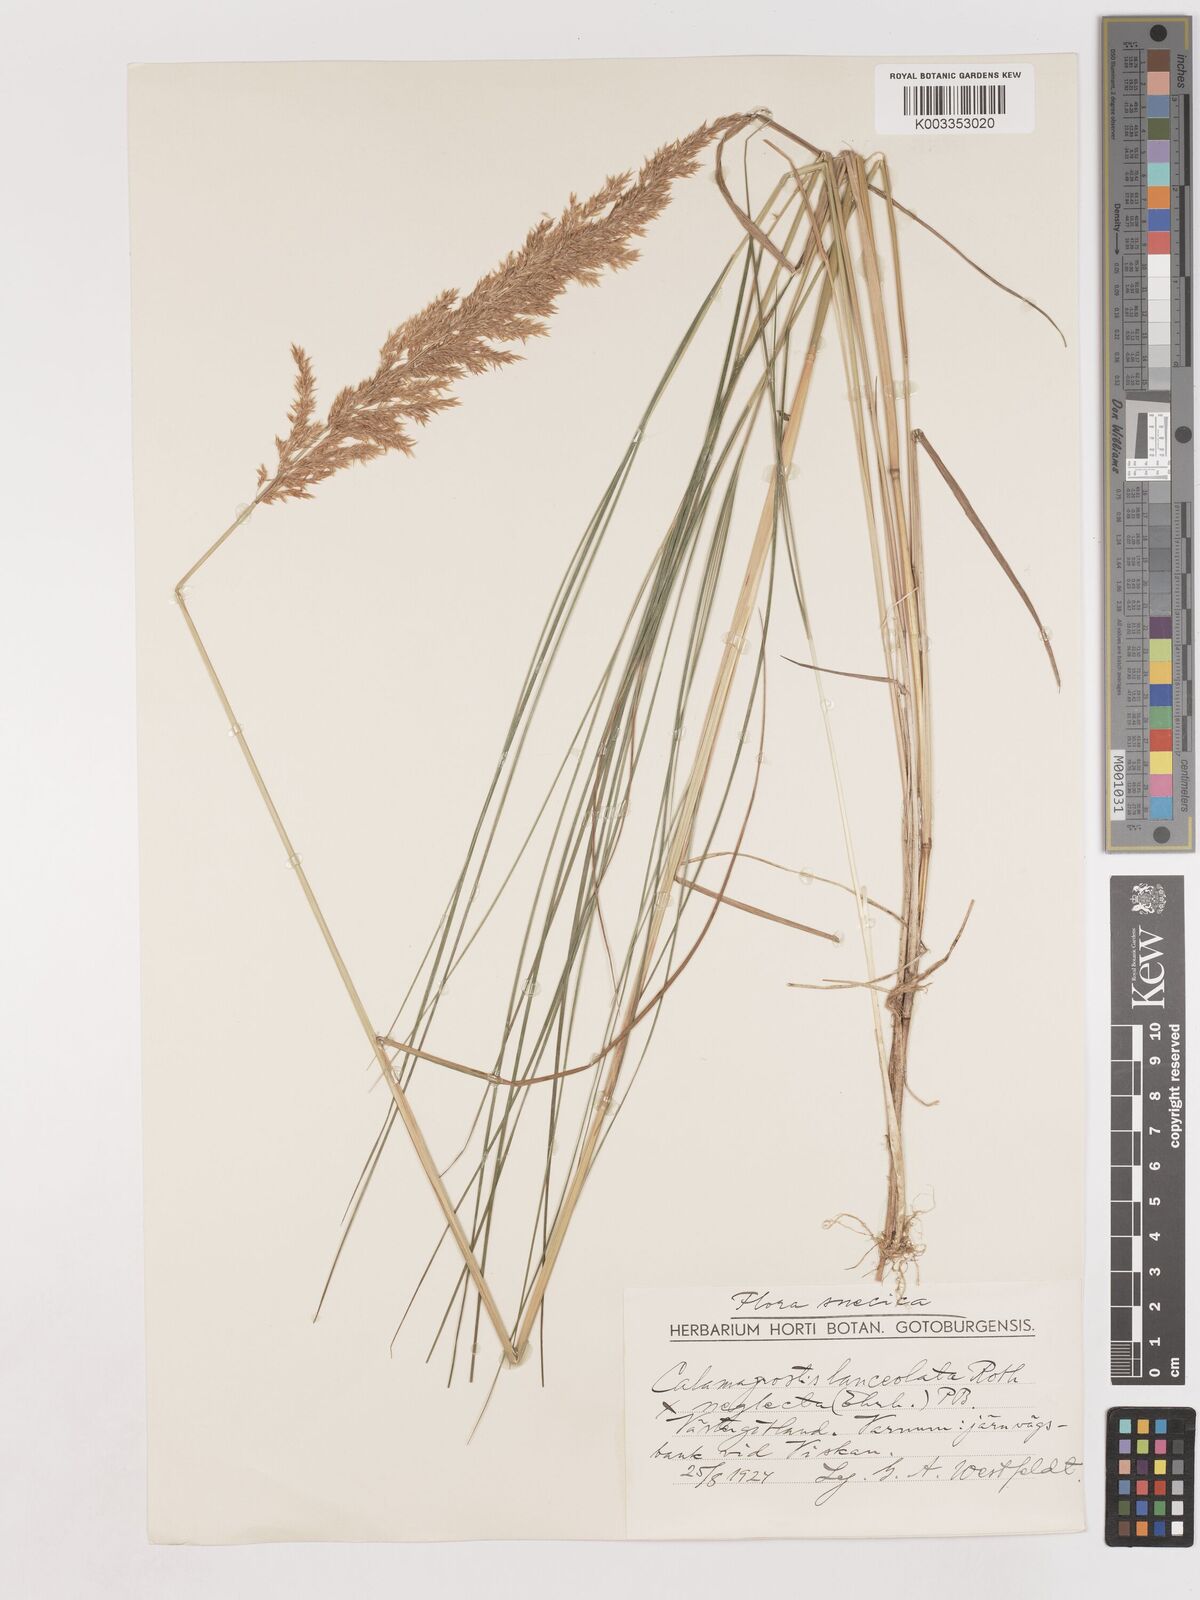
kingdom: Plantae
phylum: Tracheophyta
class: Liliopsida
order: Poales
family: Poaceae
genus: Calamagrostis
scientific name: Calamagrostis canescens
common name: Purple small-reed
